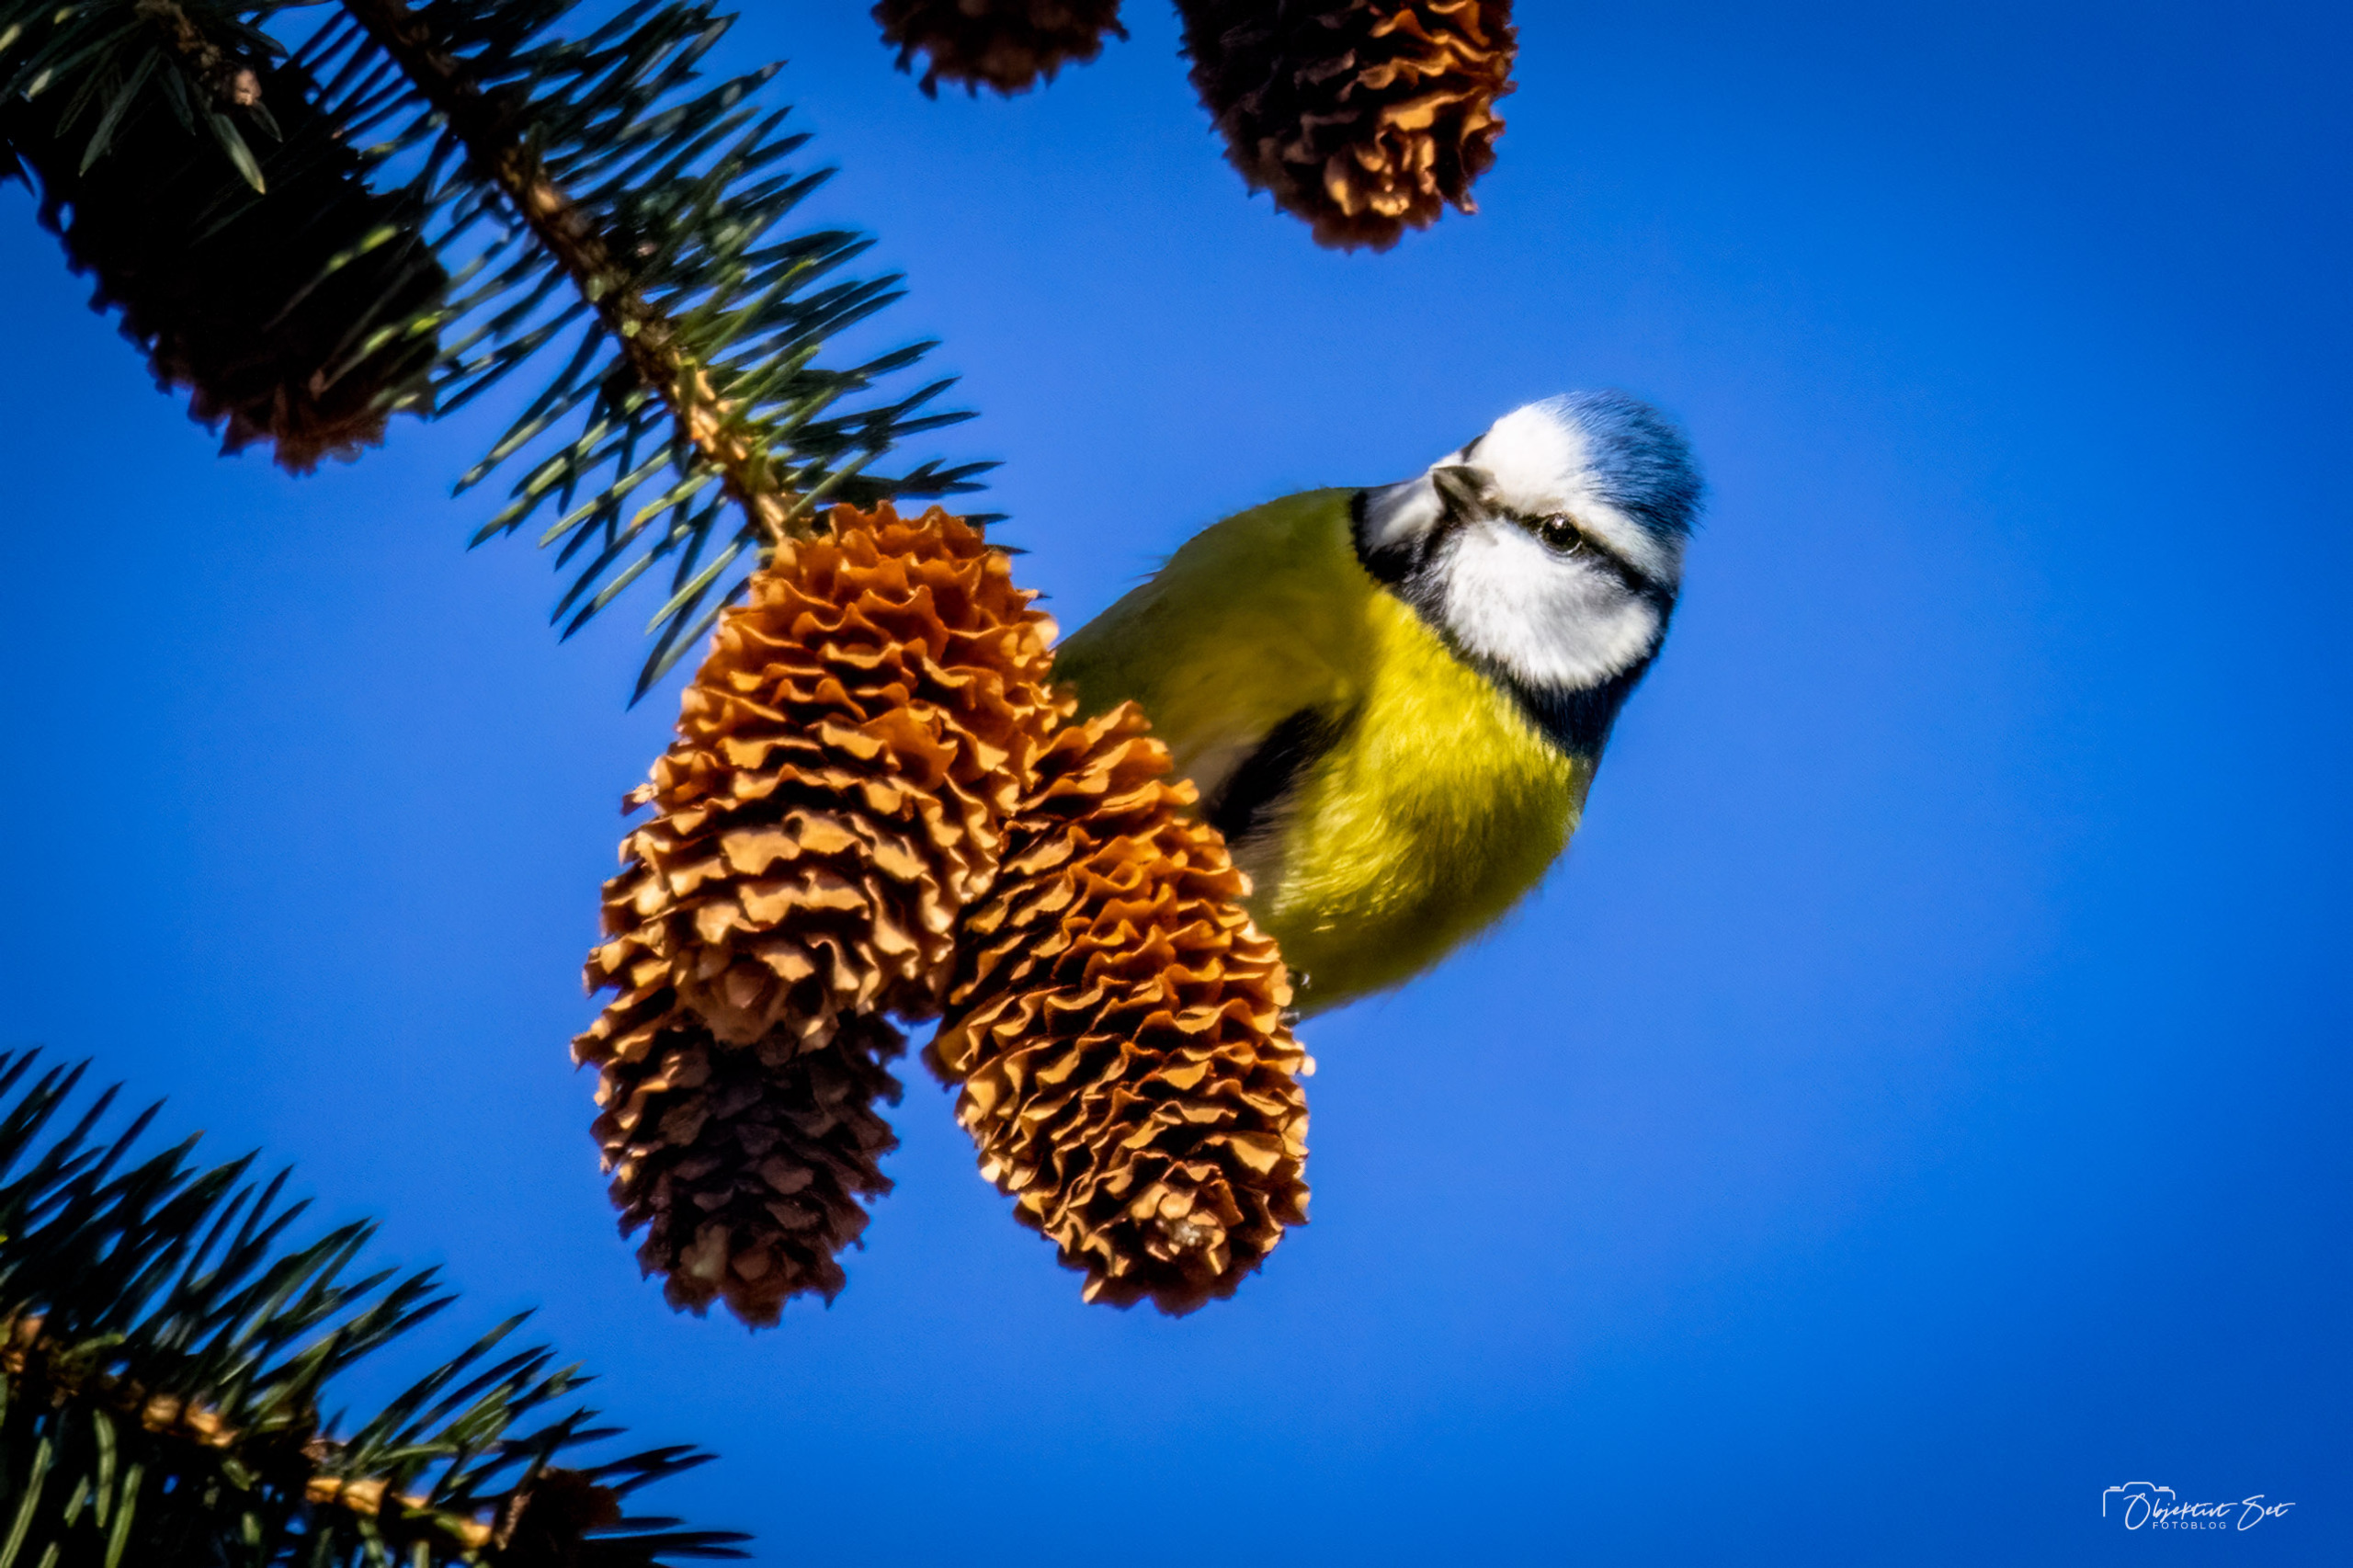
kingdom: Animalia
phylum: Chordata
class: Aves
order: Passeriformes
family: Paridae
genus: Cyanistes
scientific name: Cyanistes caeruleus
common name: Blåmejse
